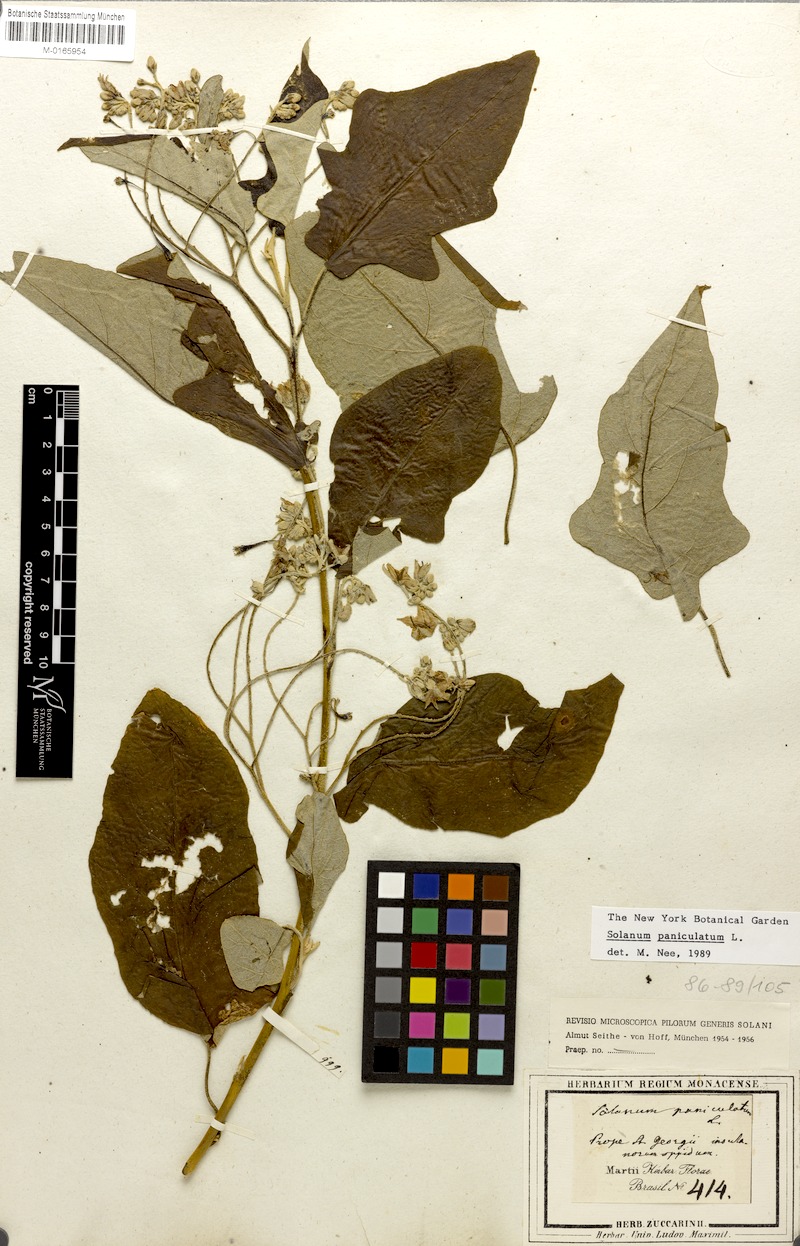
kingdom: Plantae
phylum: Tracheophyta
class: Magnoliopsida
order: Solanales
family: Solanaceae
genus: Solanum
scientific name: Solanum paniculatum
